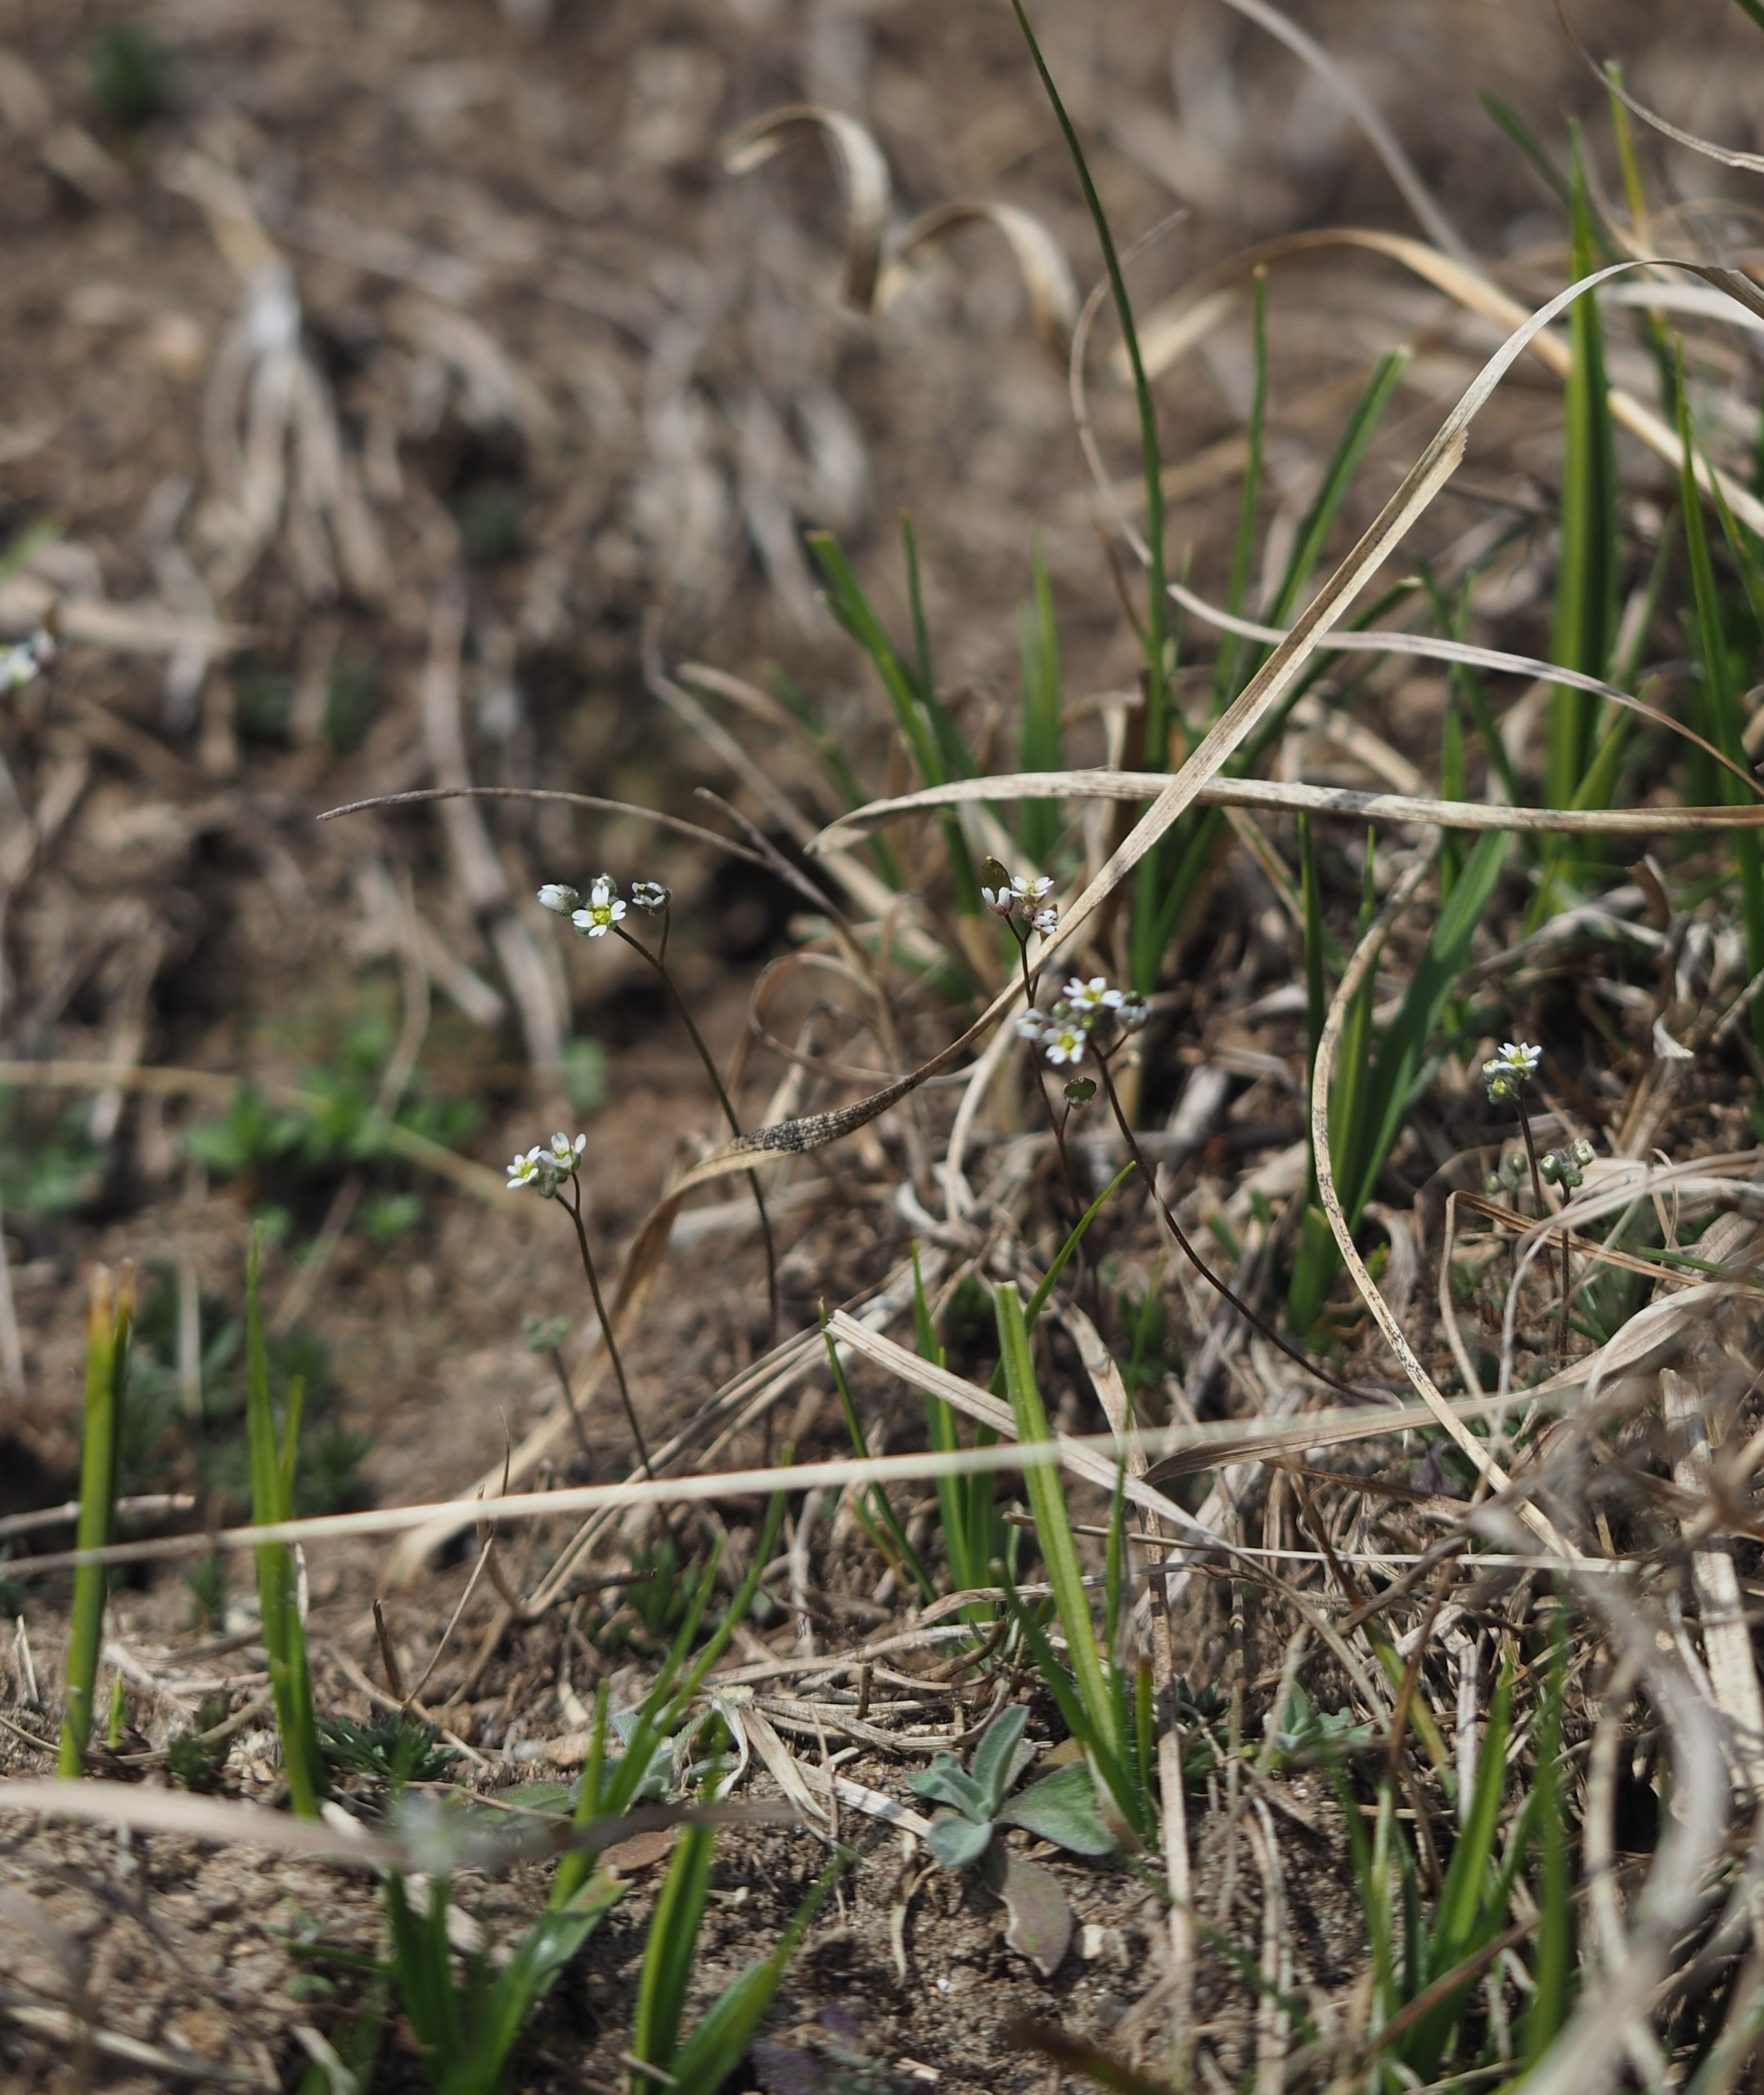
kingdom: Plantae
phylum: Tracheophyta
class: Magnoliopsida
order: Brassicales
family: Brassicaceae
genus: Draba
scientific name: Draba verna
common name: Vår-gæslingeblomst
